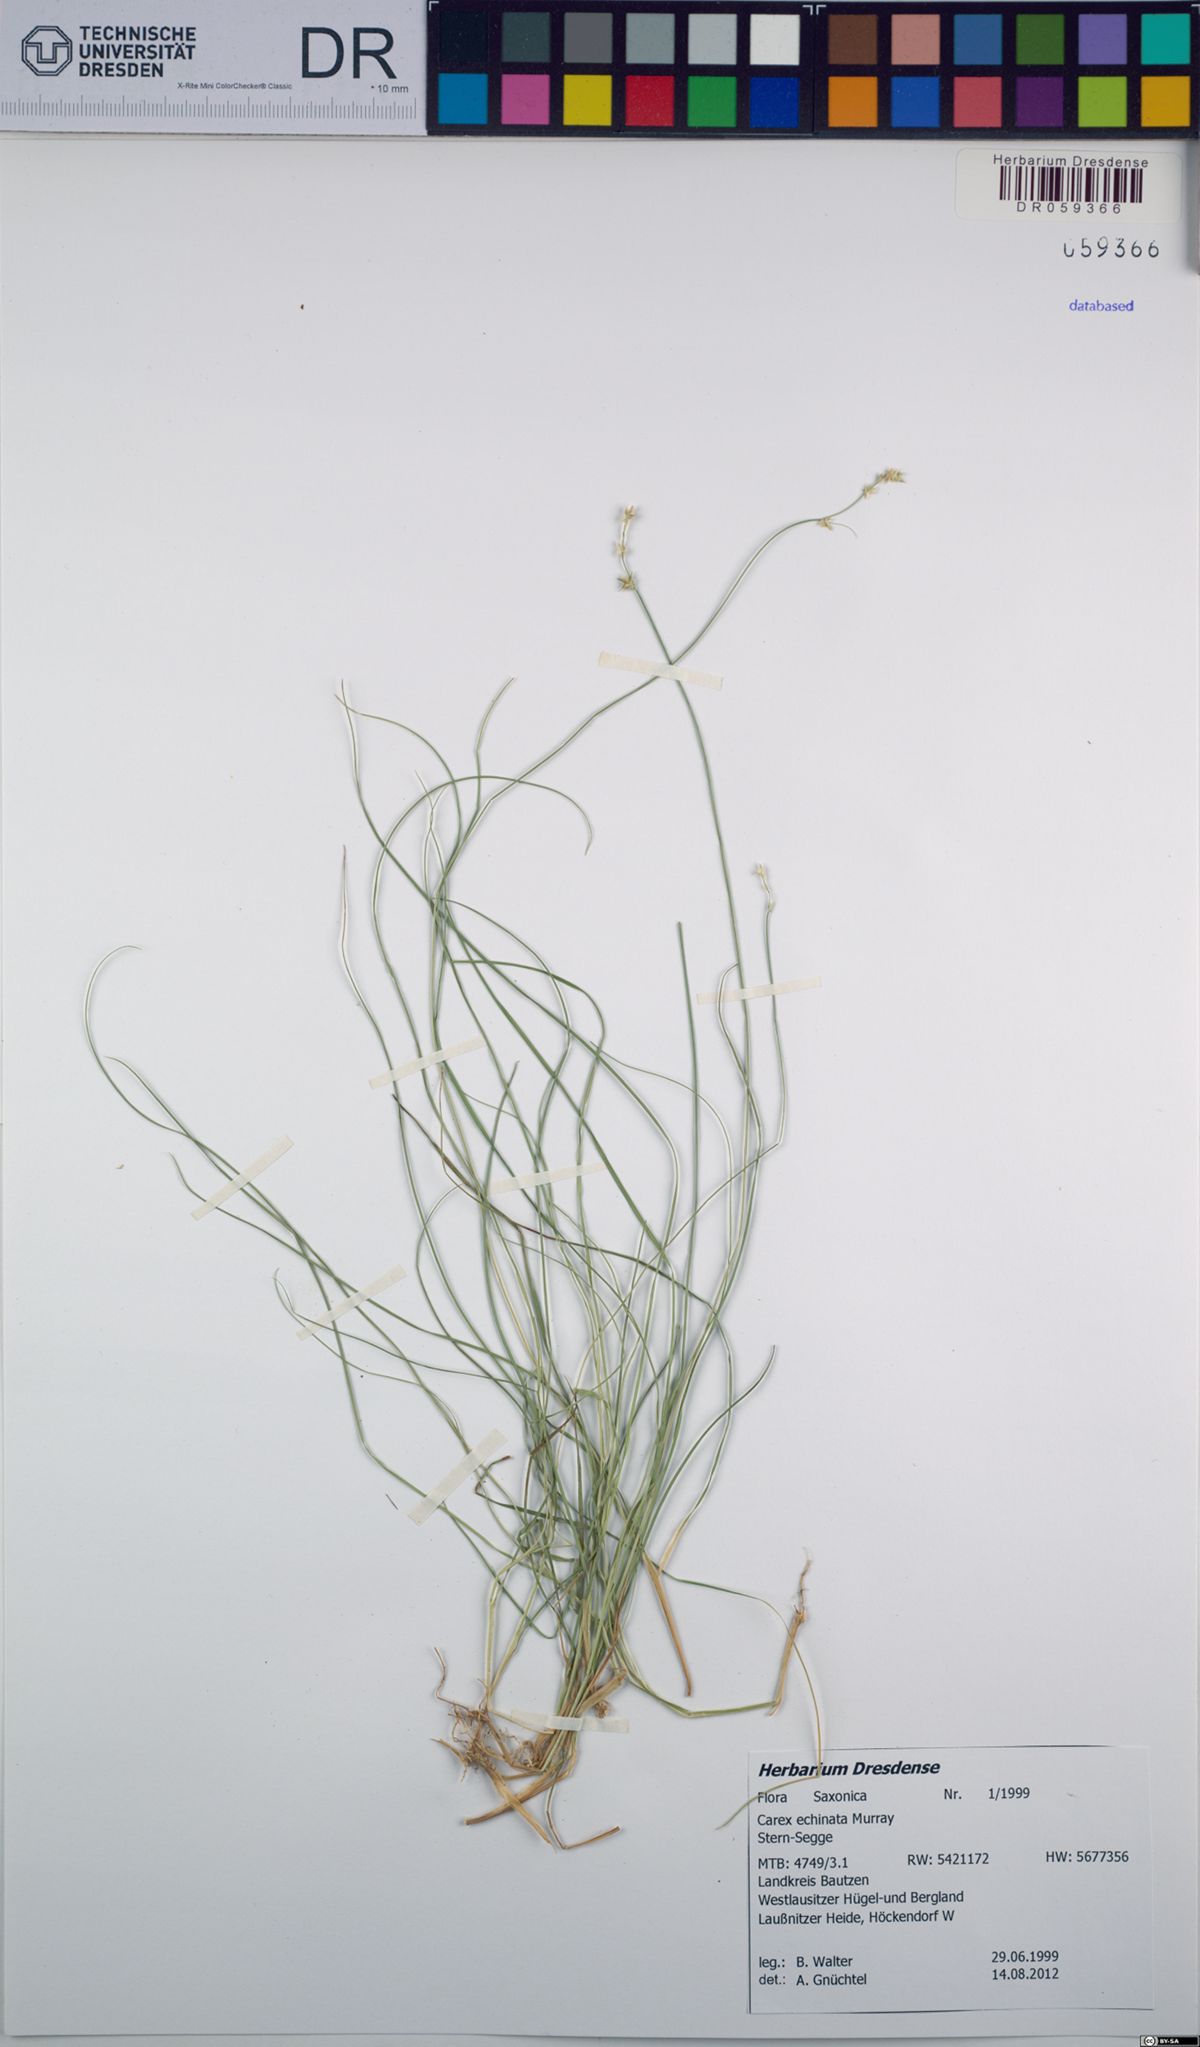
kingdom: Plantae
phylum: Tracheophyta
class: Liliopsida
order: Poales
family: Cyperaceae
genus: Carex
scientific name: Carex echinata
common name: Star sedge
